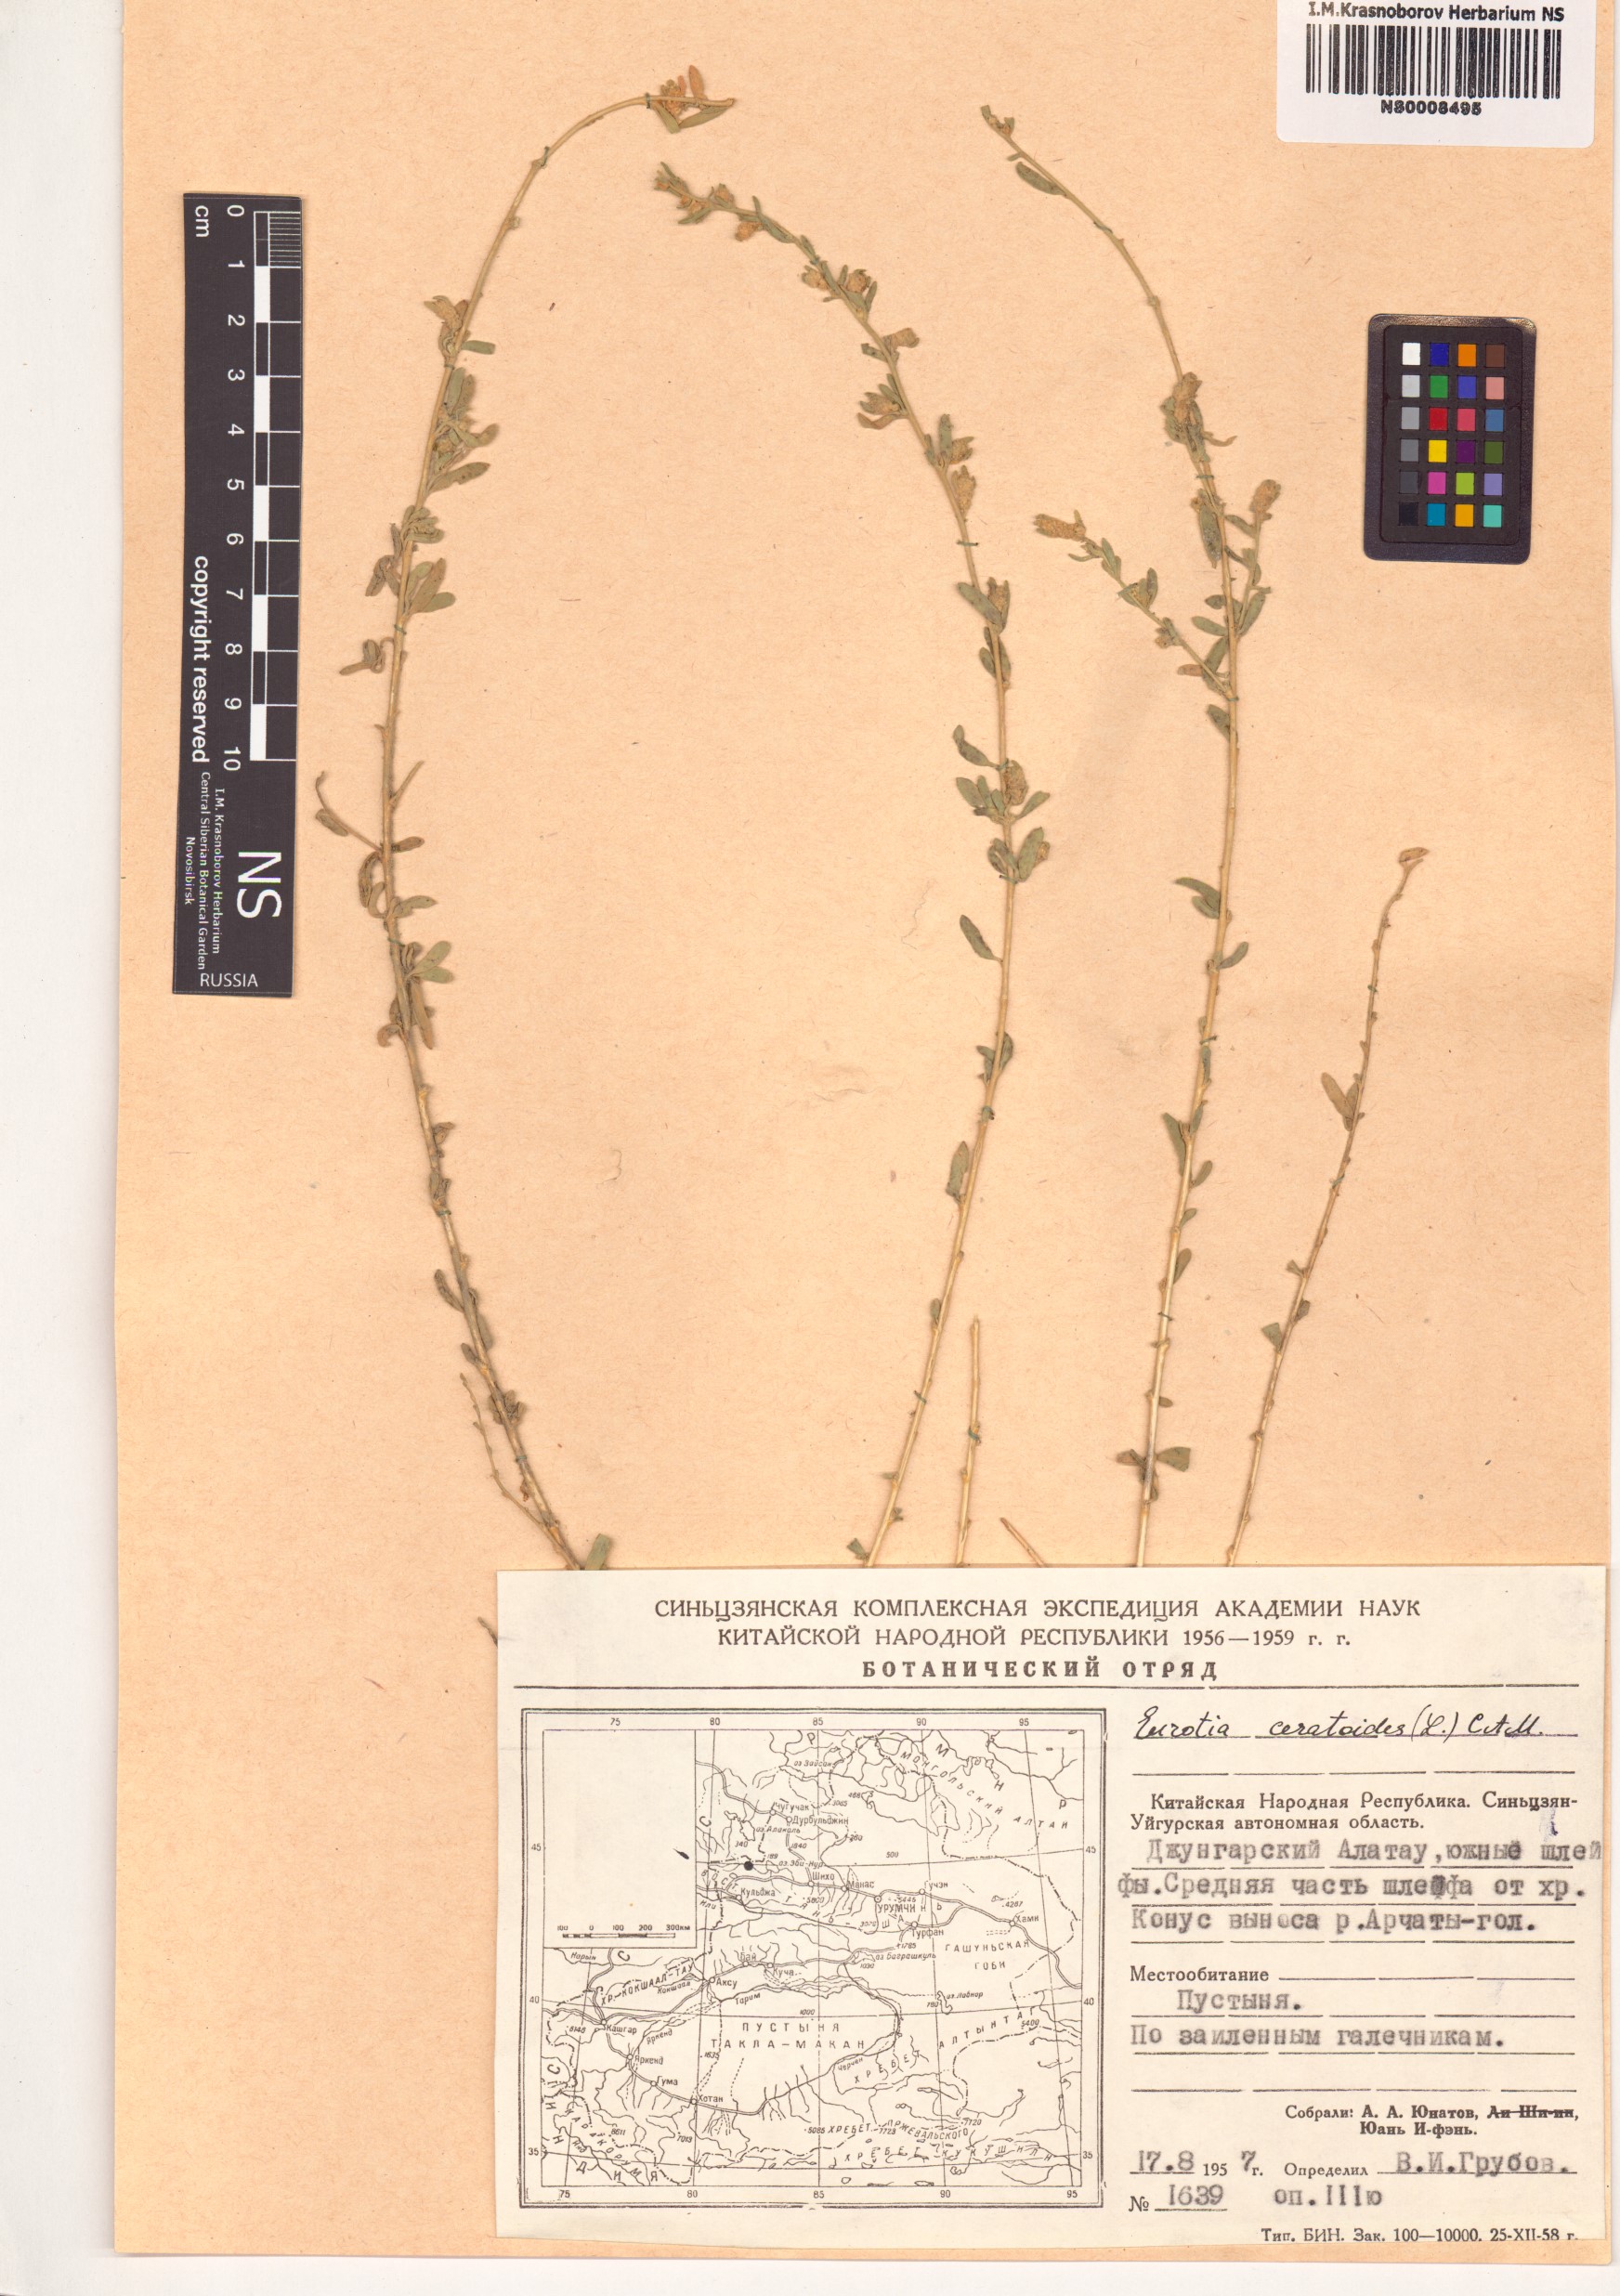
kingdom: Plantae
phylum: Tracheophyta
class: Magnoliopsida
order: Caryophyllales
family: Amaranthaceae
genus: Krascheninnikovia
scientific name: Krascheninnikovia ceratoides
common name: Pamirian winterfat
